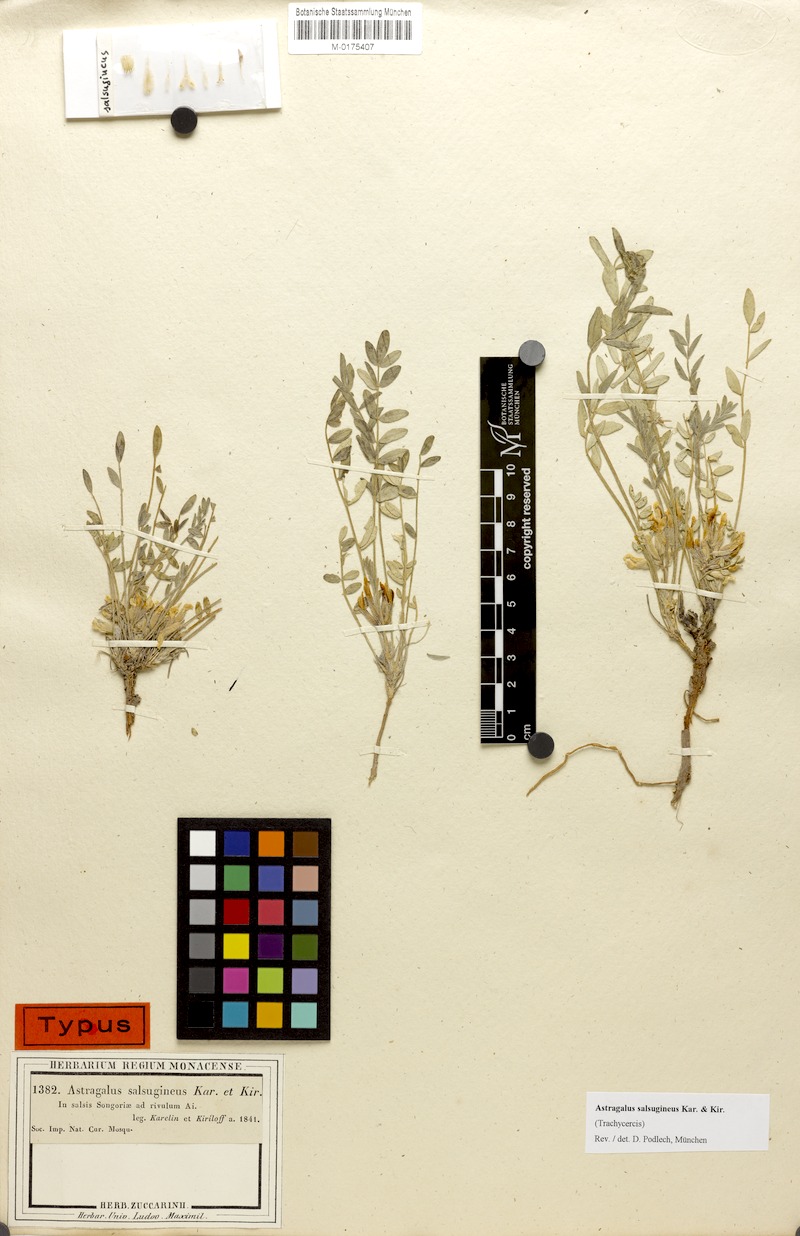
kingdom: Plantae
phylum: Tracheophyta
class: Magnoliopsida
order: Fabales
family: Fabaceae
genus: Astragalus
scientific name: Astragalus salsugineus
